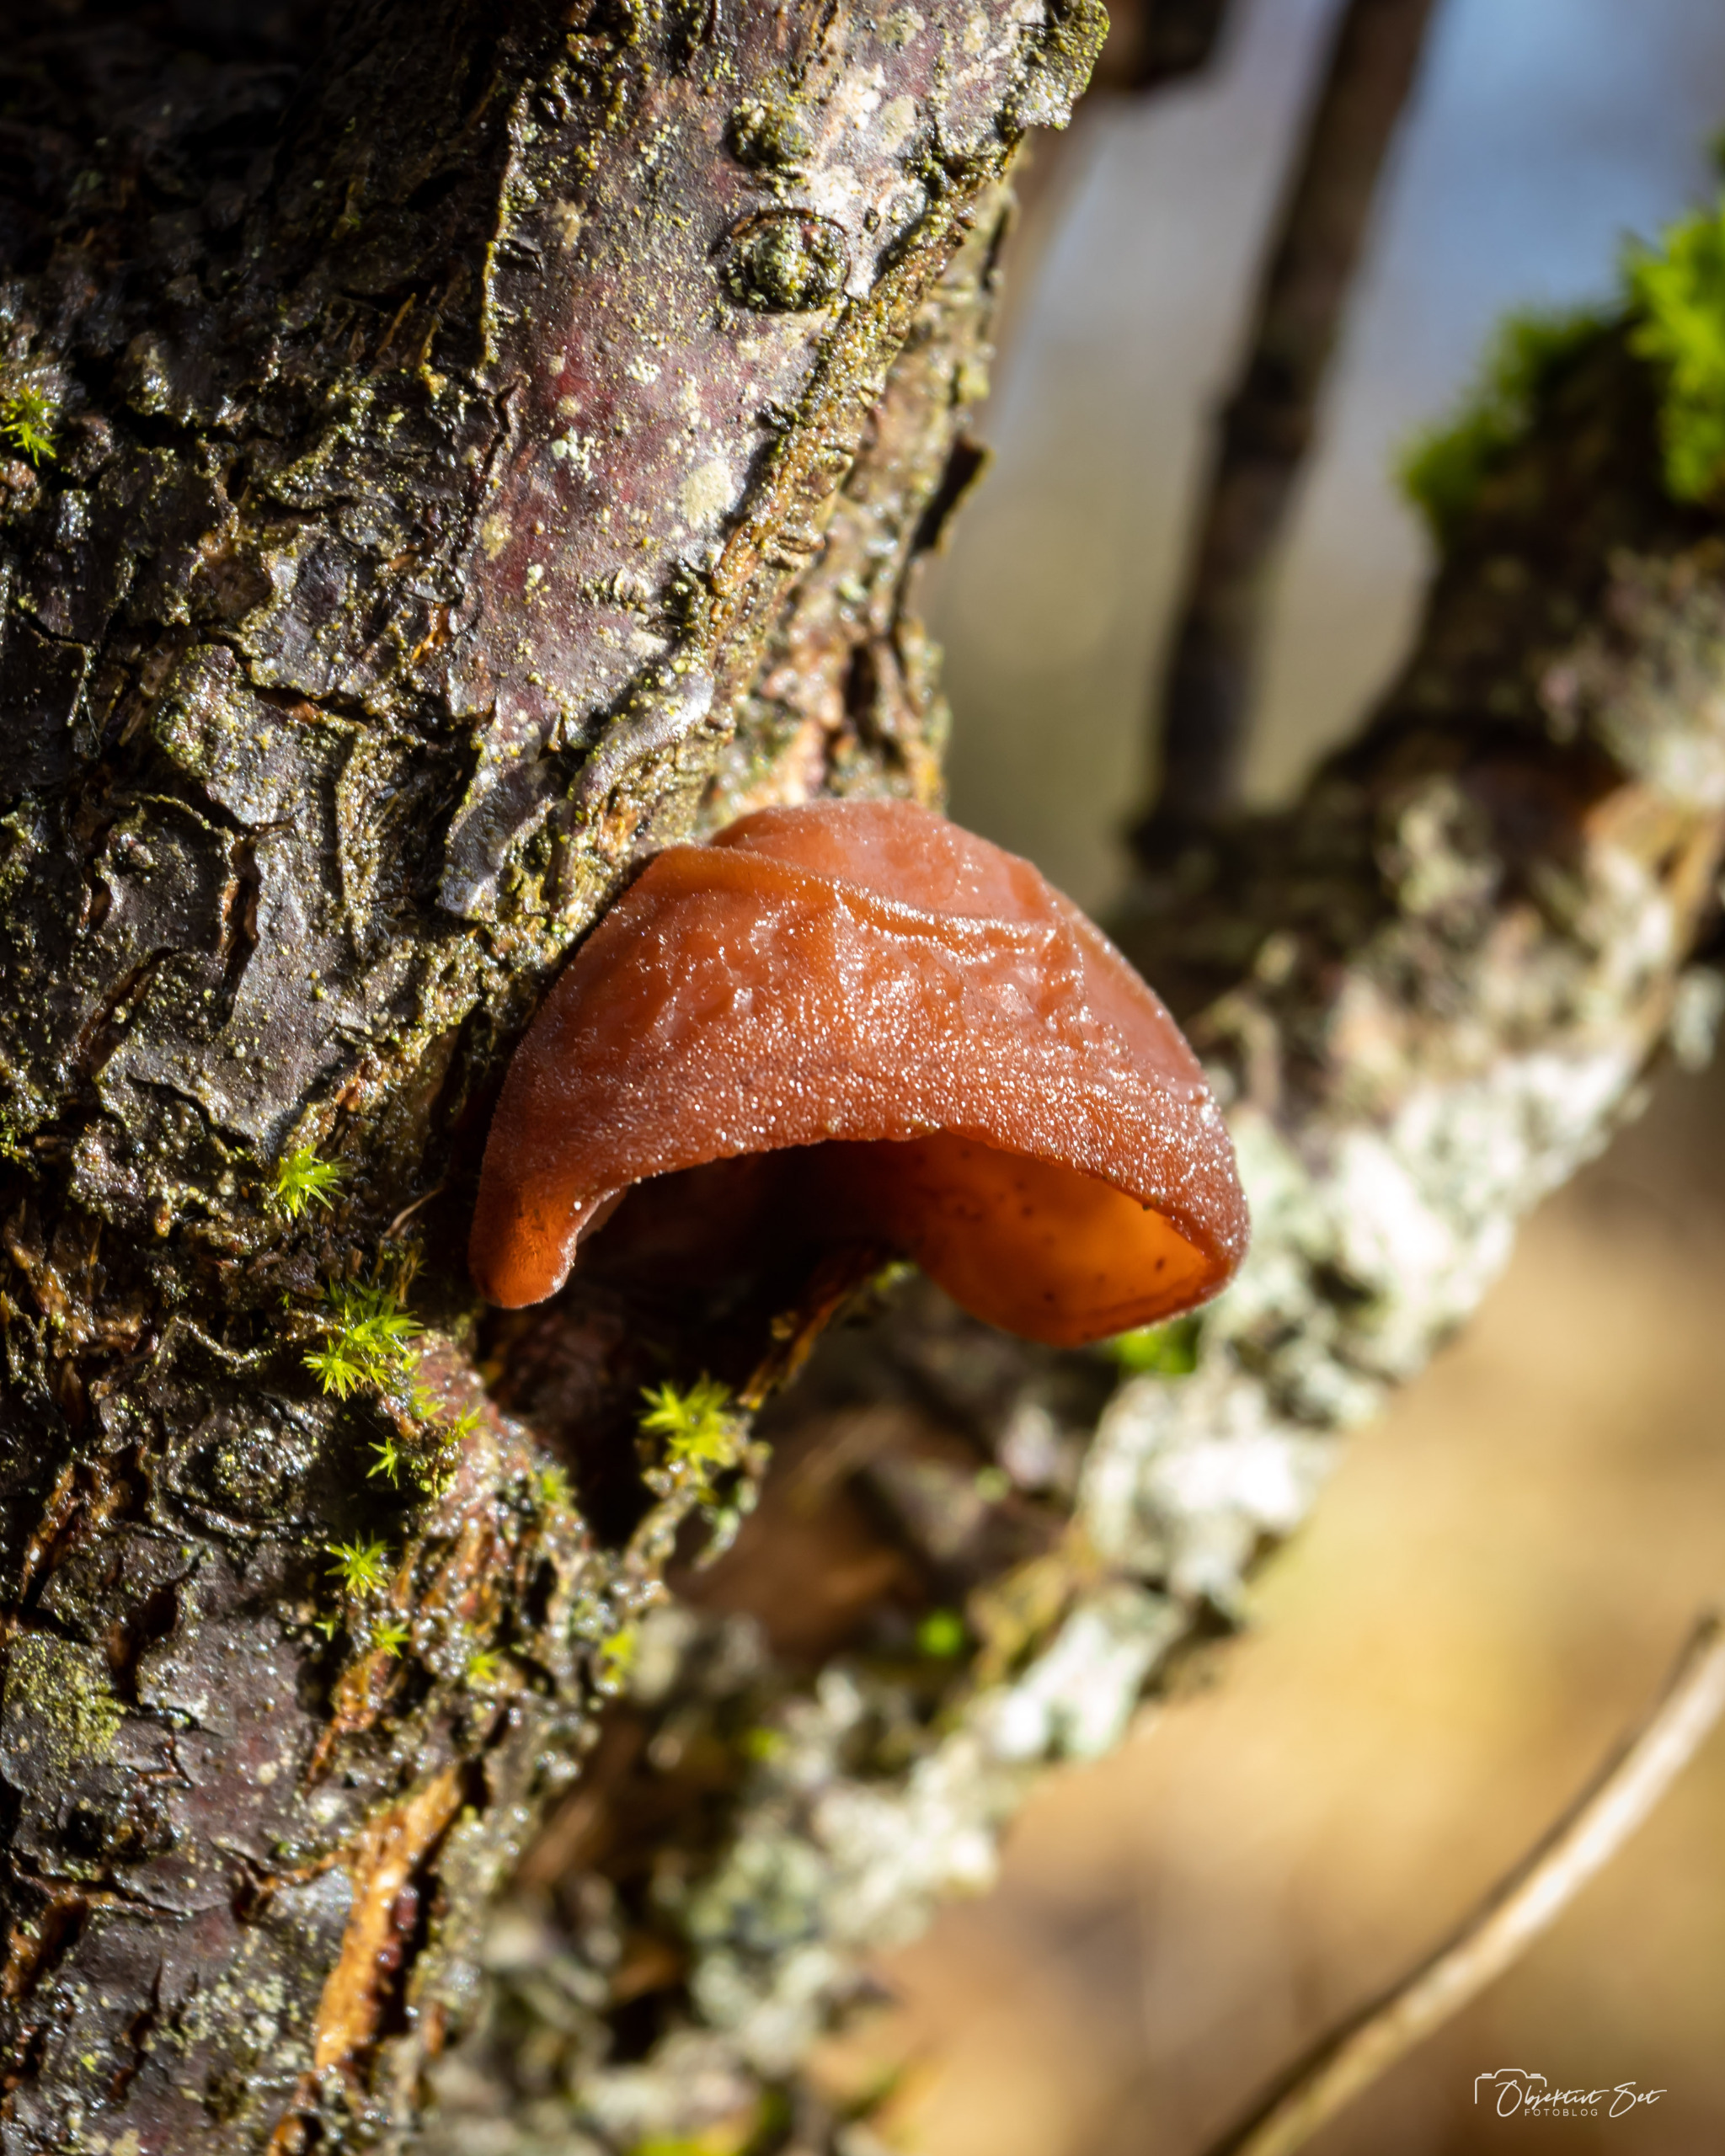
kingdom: Fungi
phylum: Basidiomycota
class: Agaricomycetes
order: Auriculariales
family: Auriculariaceae
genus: Auricularia
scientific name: Auricularia auricula-judae
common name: Almindelig judasøre
